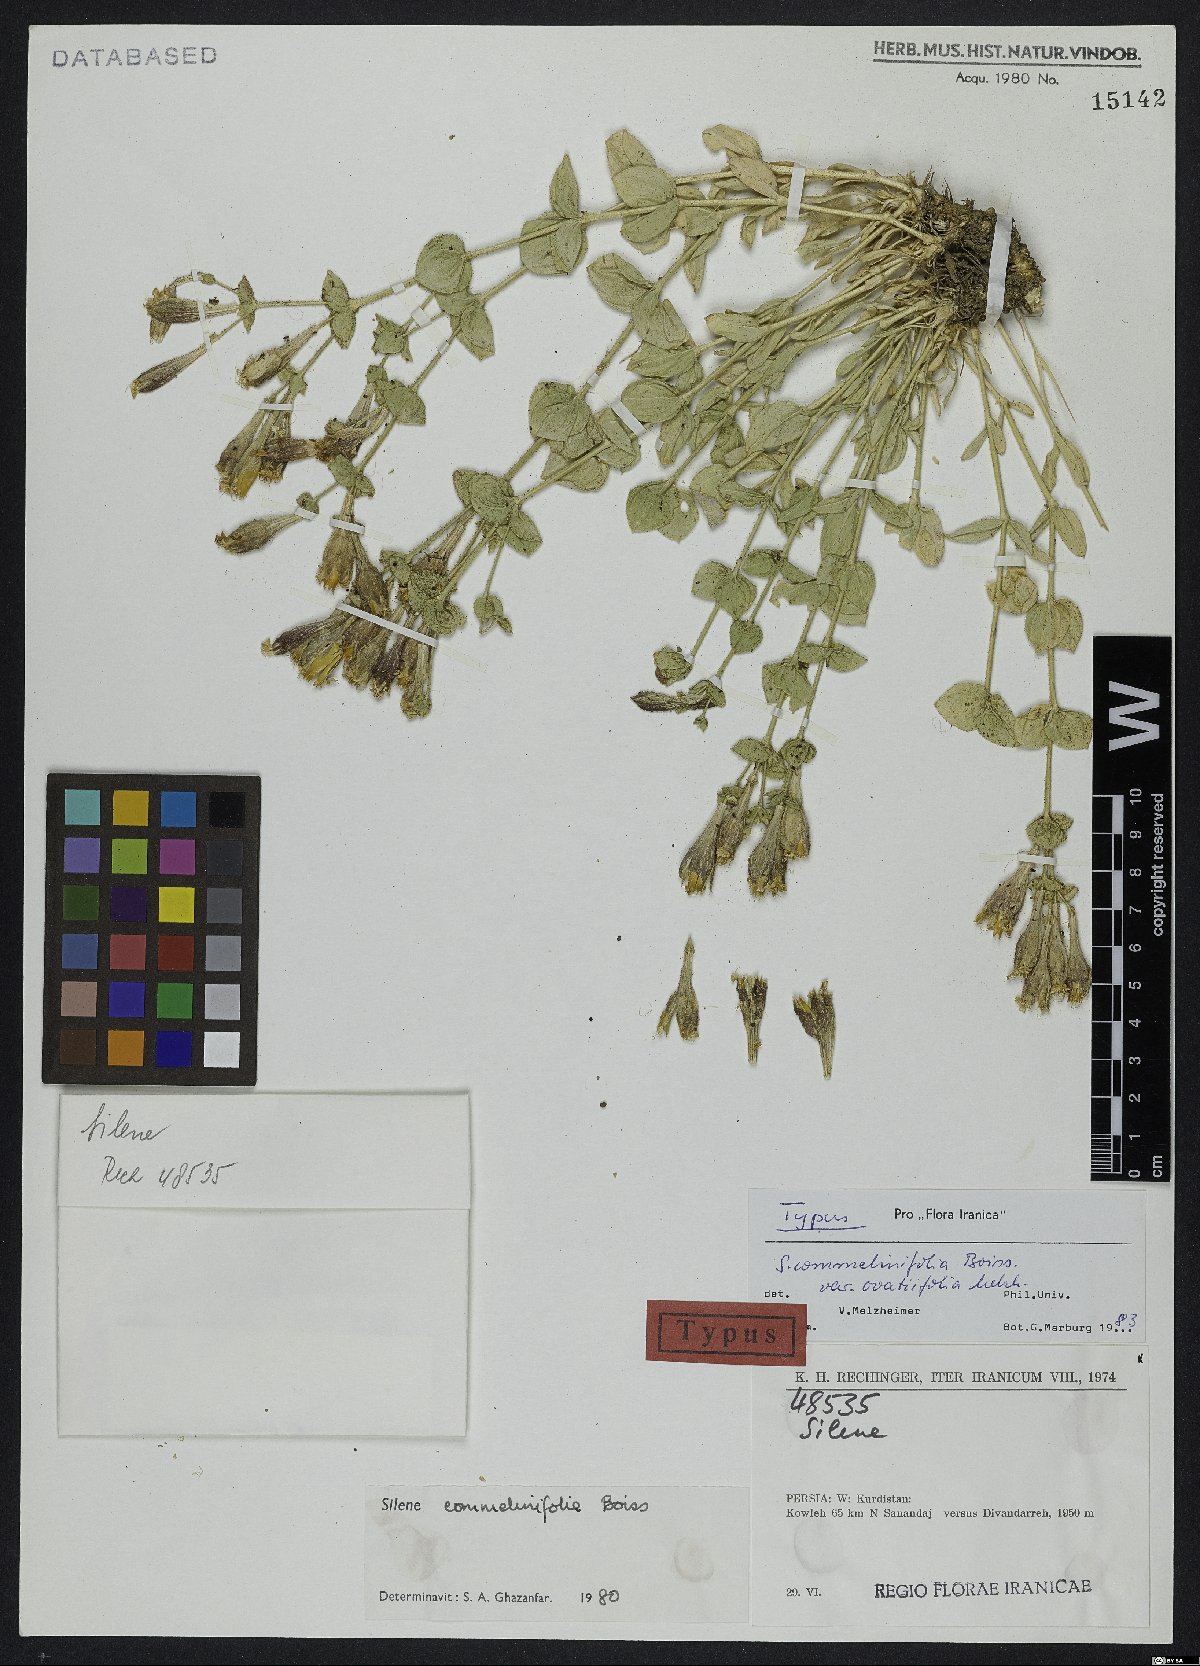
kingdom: Plantae
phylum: Tracheophyta
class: Magnoliopsida
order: Caryophyllales
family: Caryophyllaceae
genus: Silene
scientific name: Silene commelinifolia
